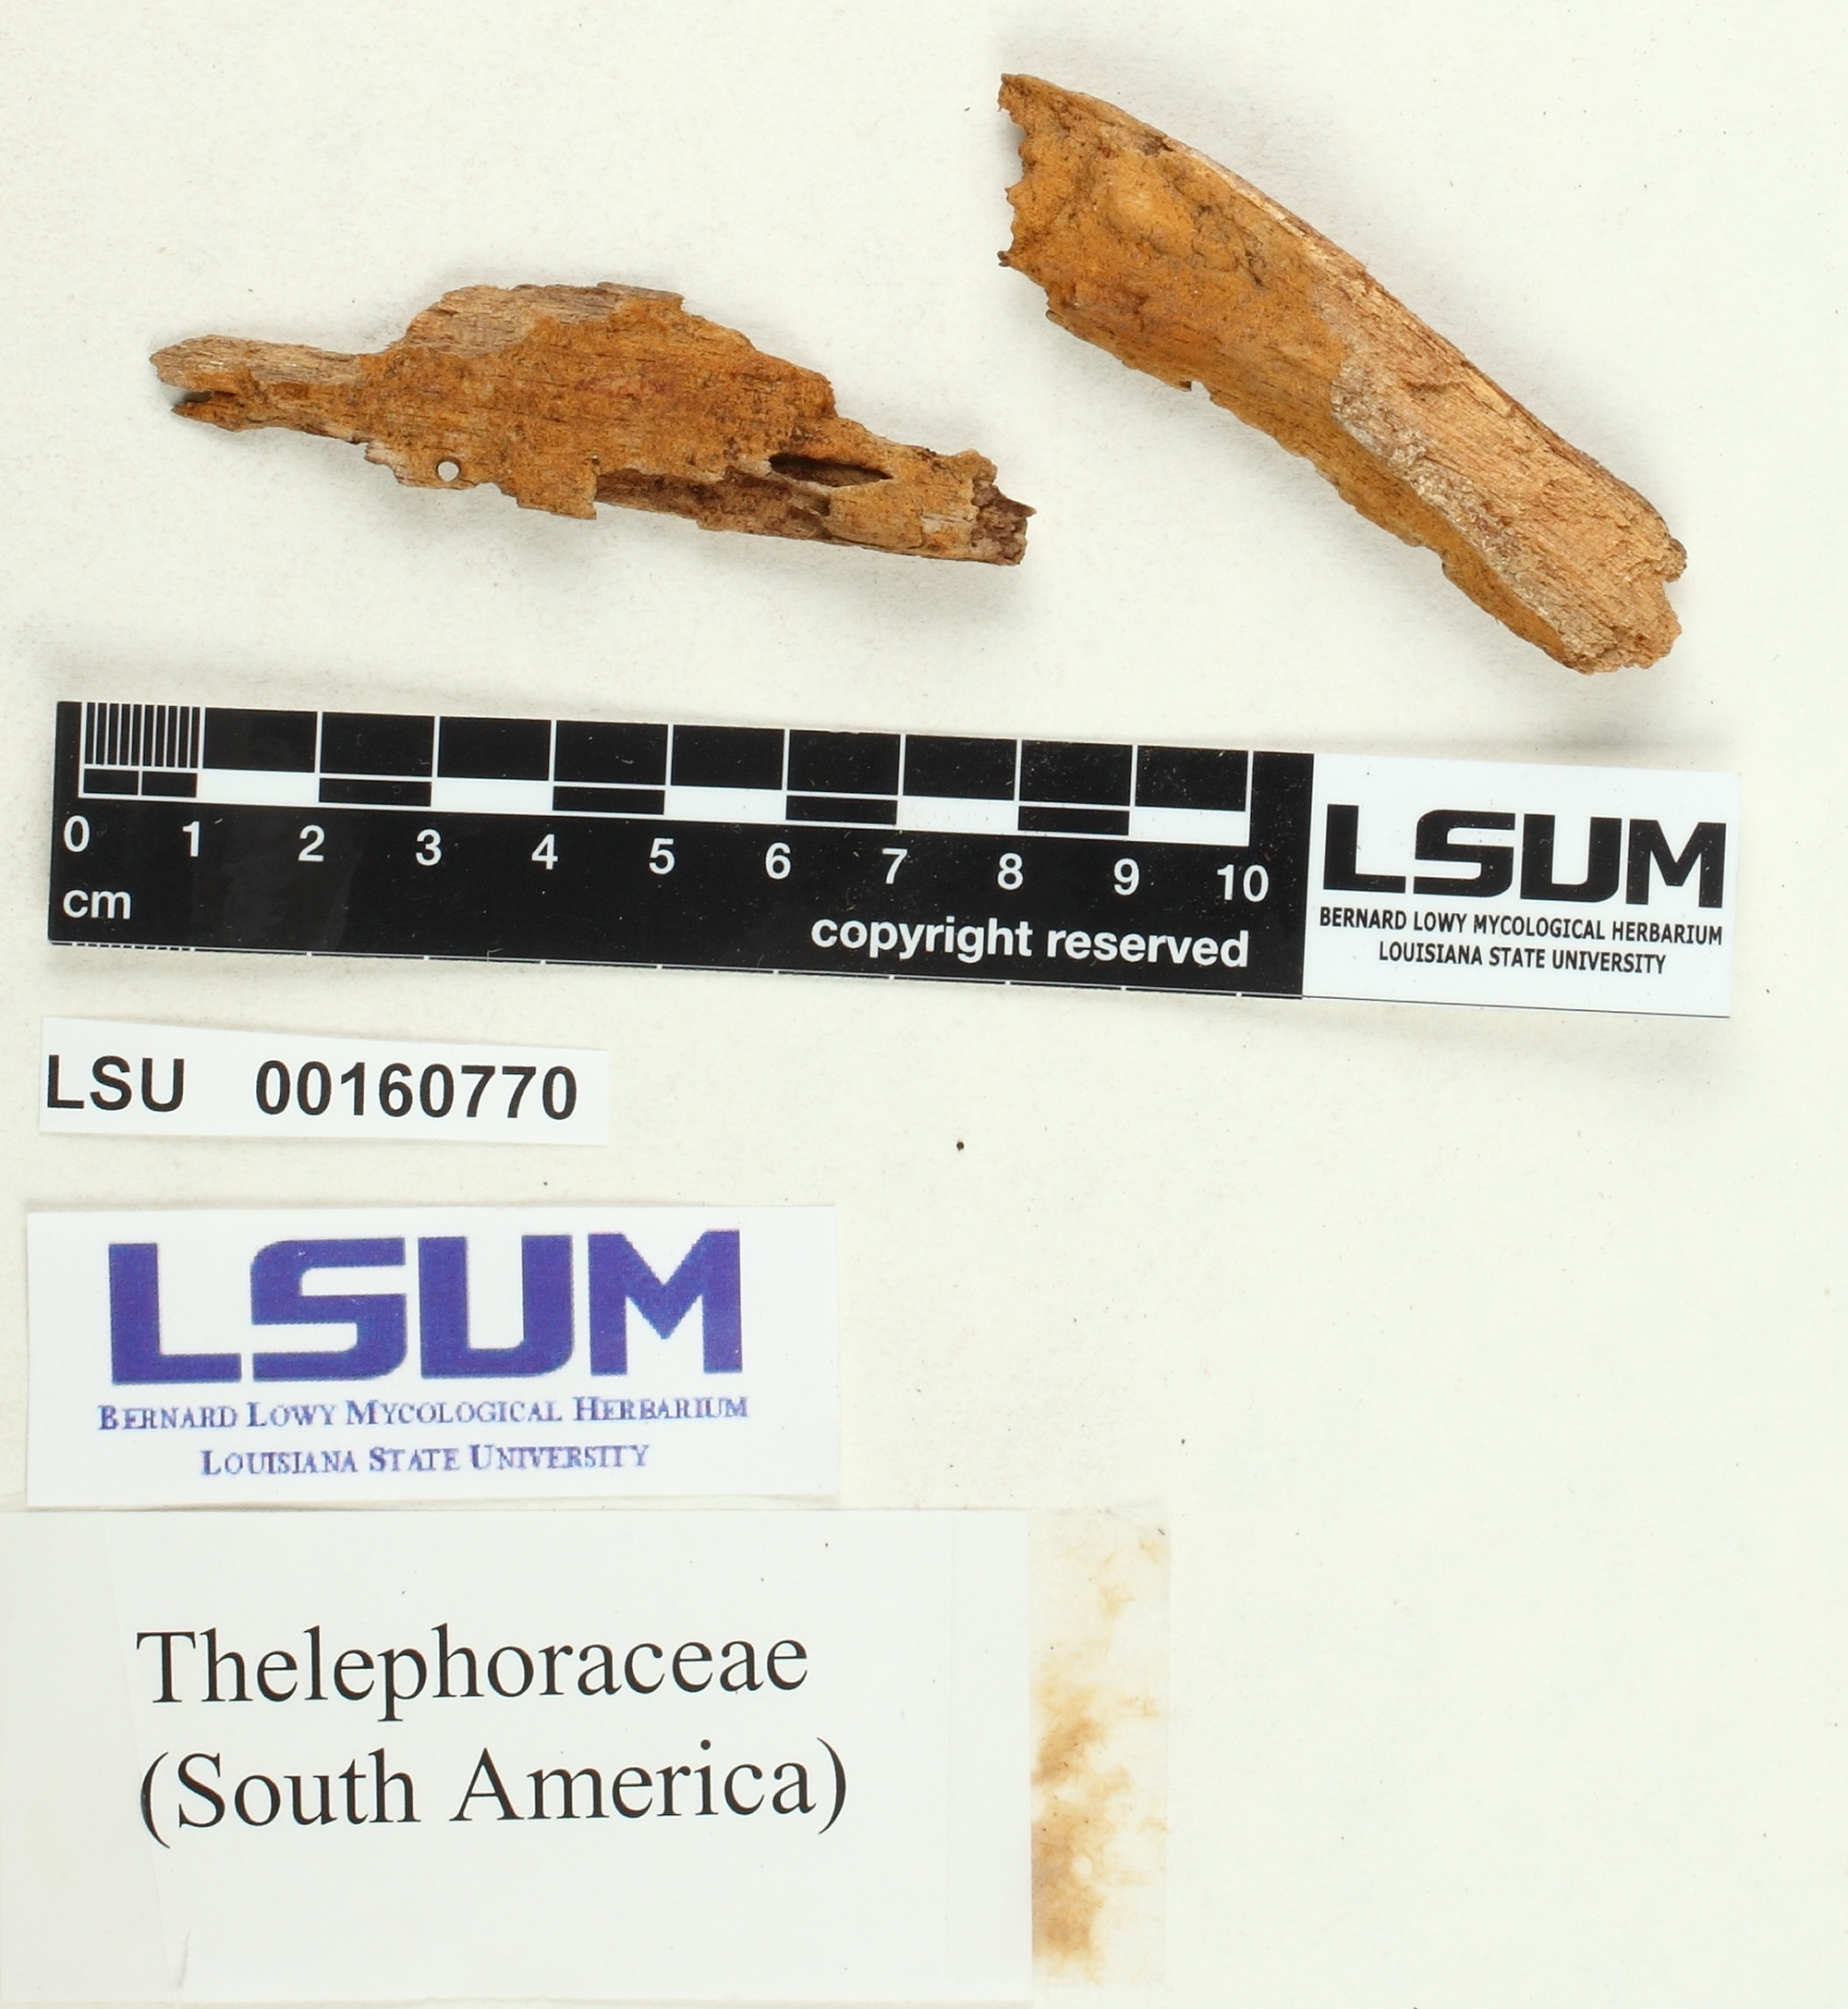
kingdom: Fungi
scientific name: Fungi
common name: Fungi
